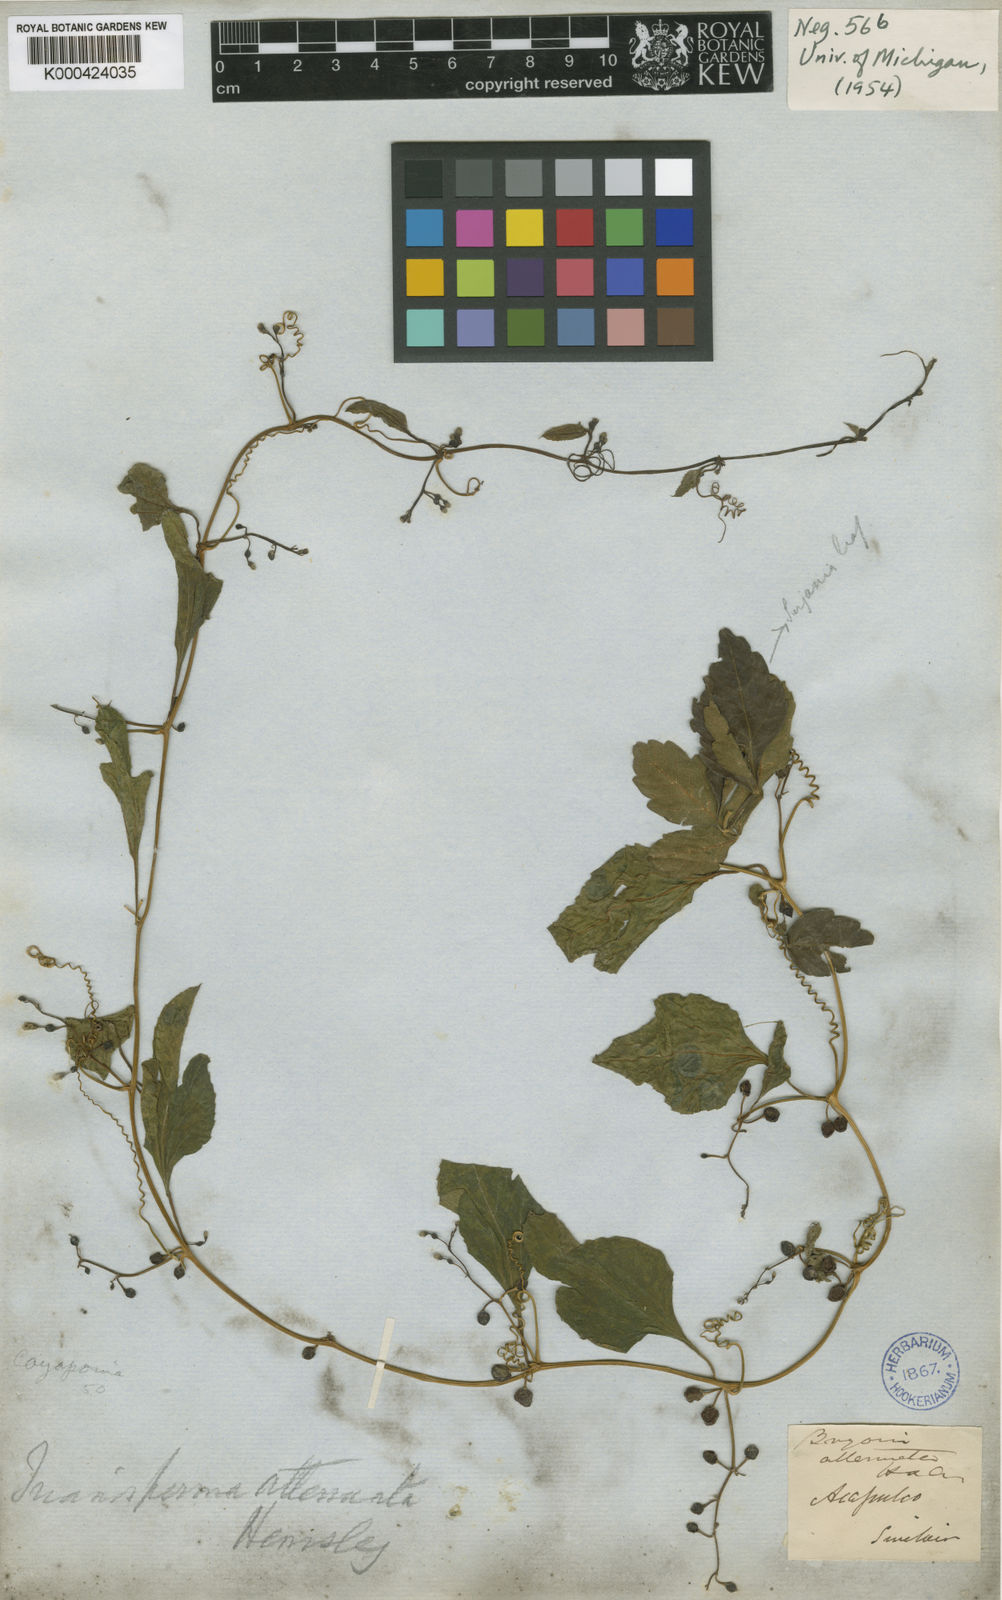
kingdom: Plantae
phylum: Tracheophyta
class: Magnoliopsida
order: Cucurbitales
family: Cucurbitaceae
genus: Cayaponia
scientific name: Cayaponia attenuata
